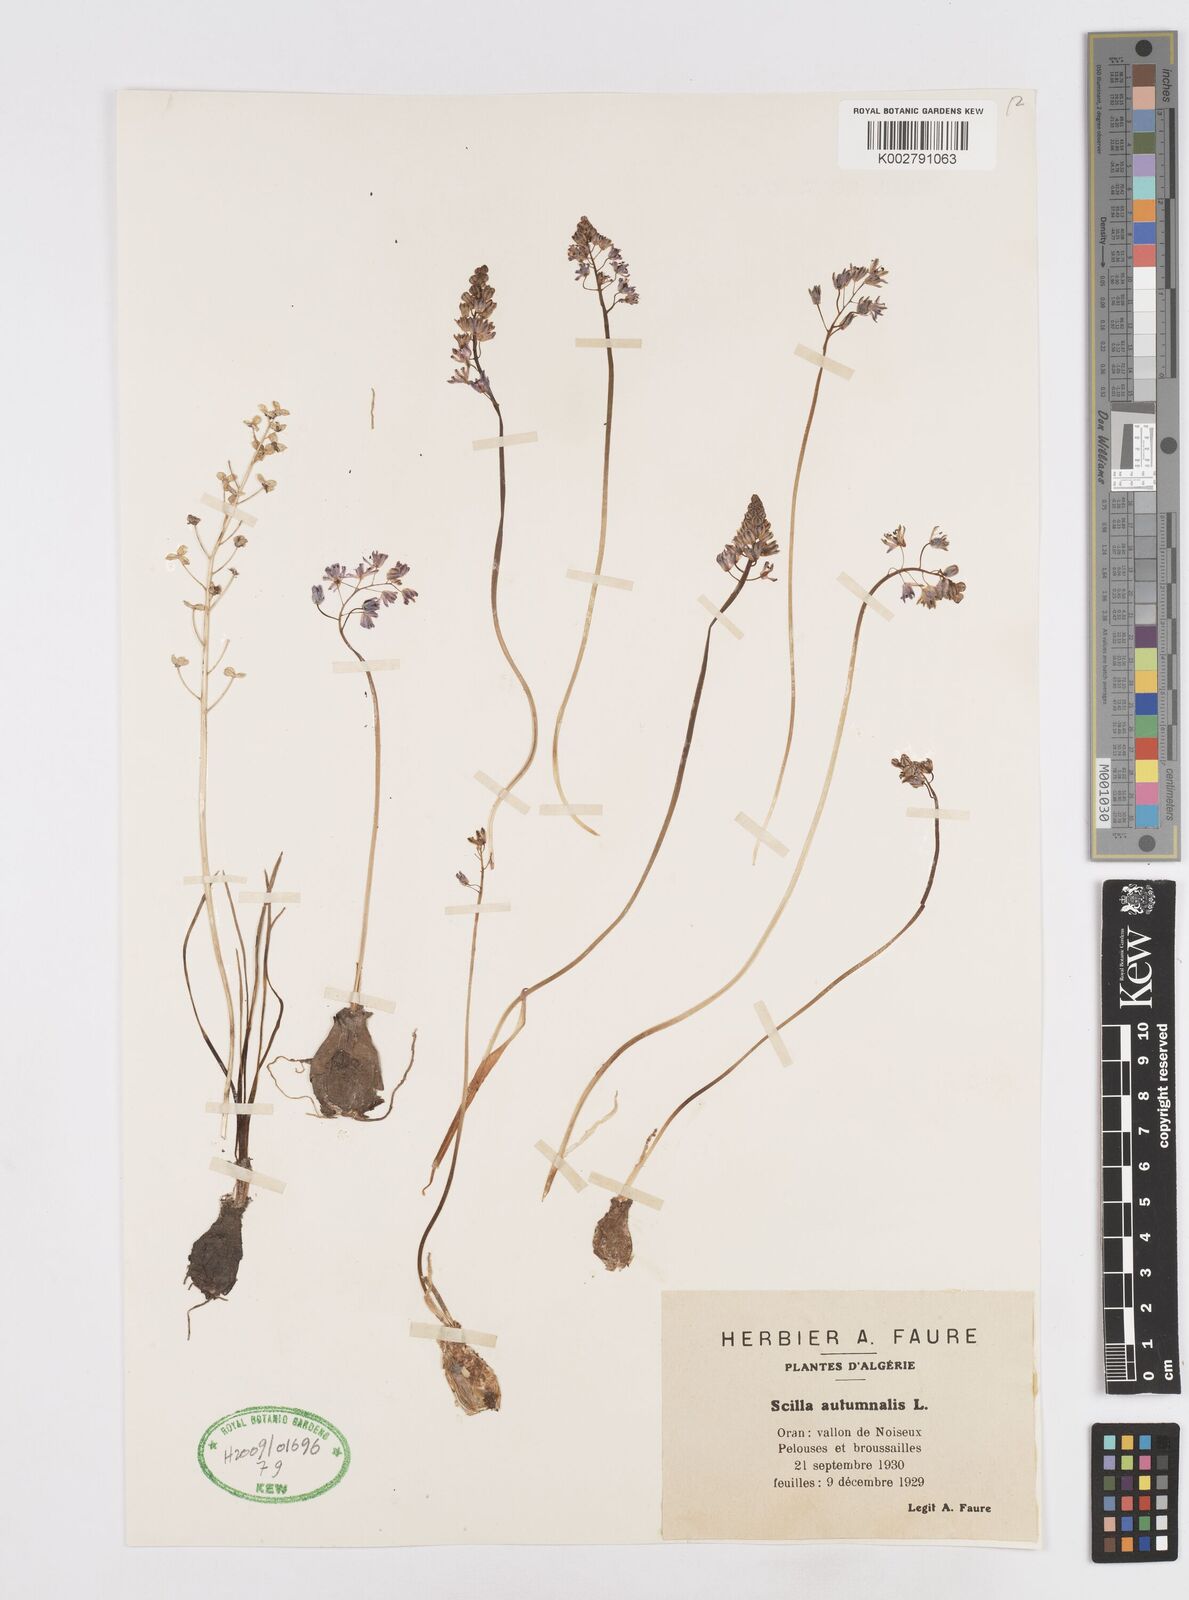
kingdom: Plantae
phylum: Tracheophyta
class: Liliopsida
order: Asparagales
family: Asparagaceae
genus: Prospero
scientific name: Prospero autumnale
